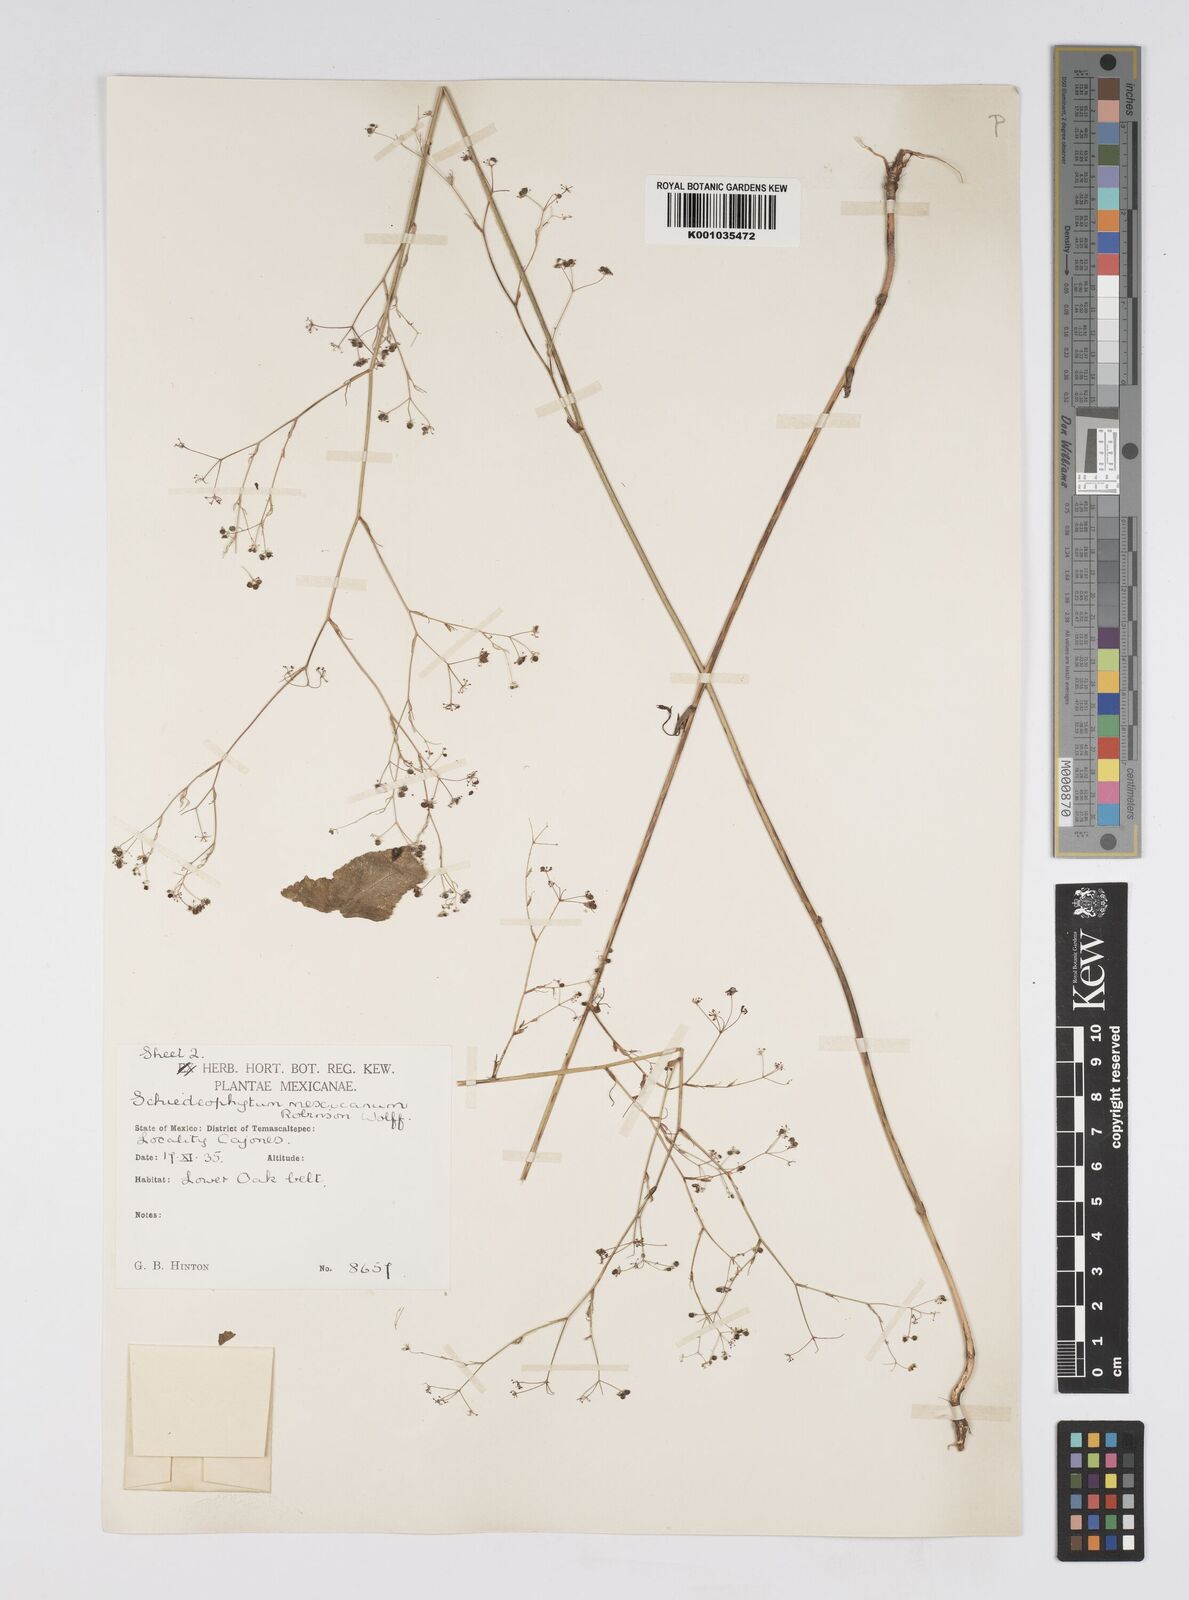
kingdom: Plantae
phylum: Tracheophyta
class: Magnoliopsida
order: Apiales
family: Apiaceae
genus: Donnellsmithia
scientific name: Donnellsmithia mexicana
